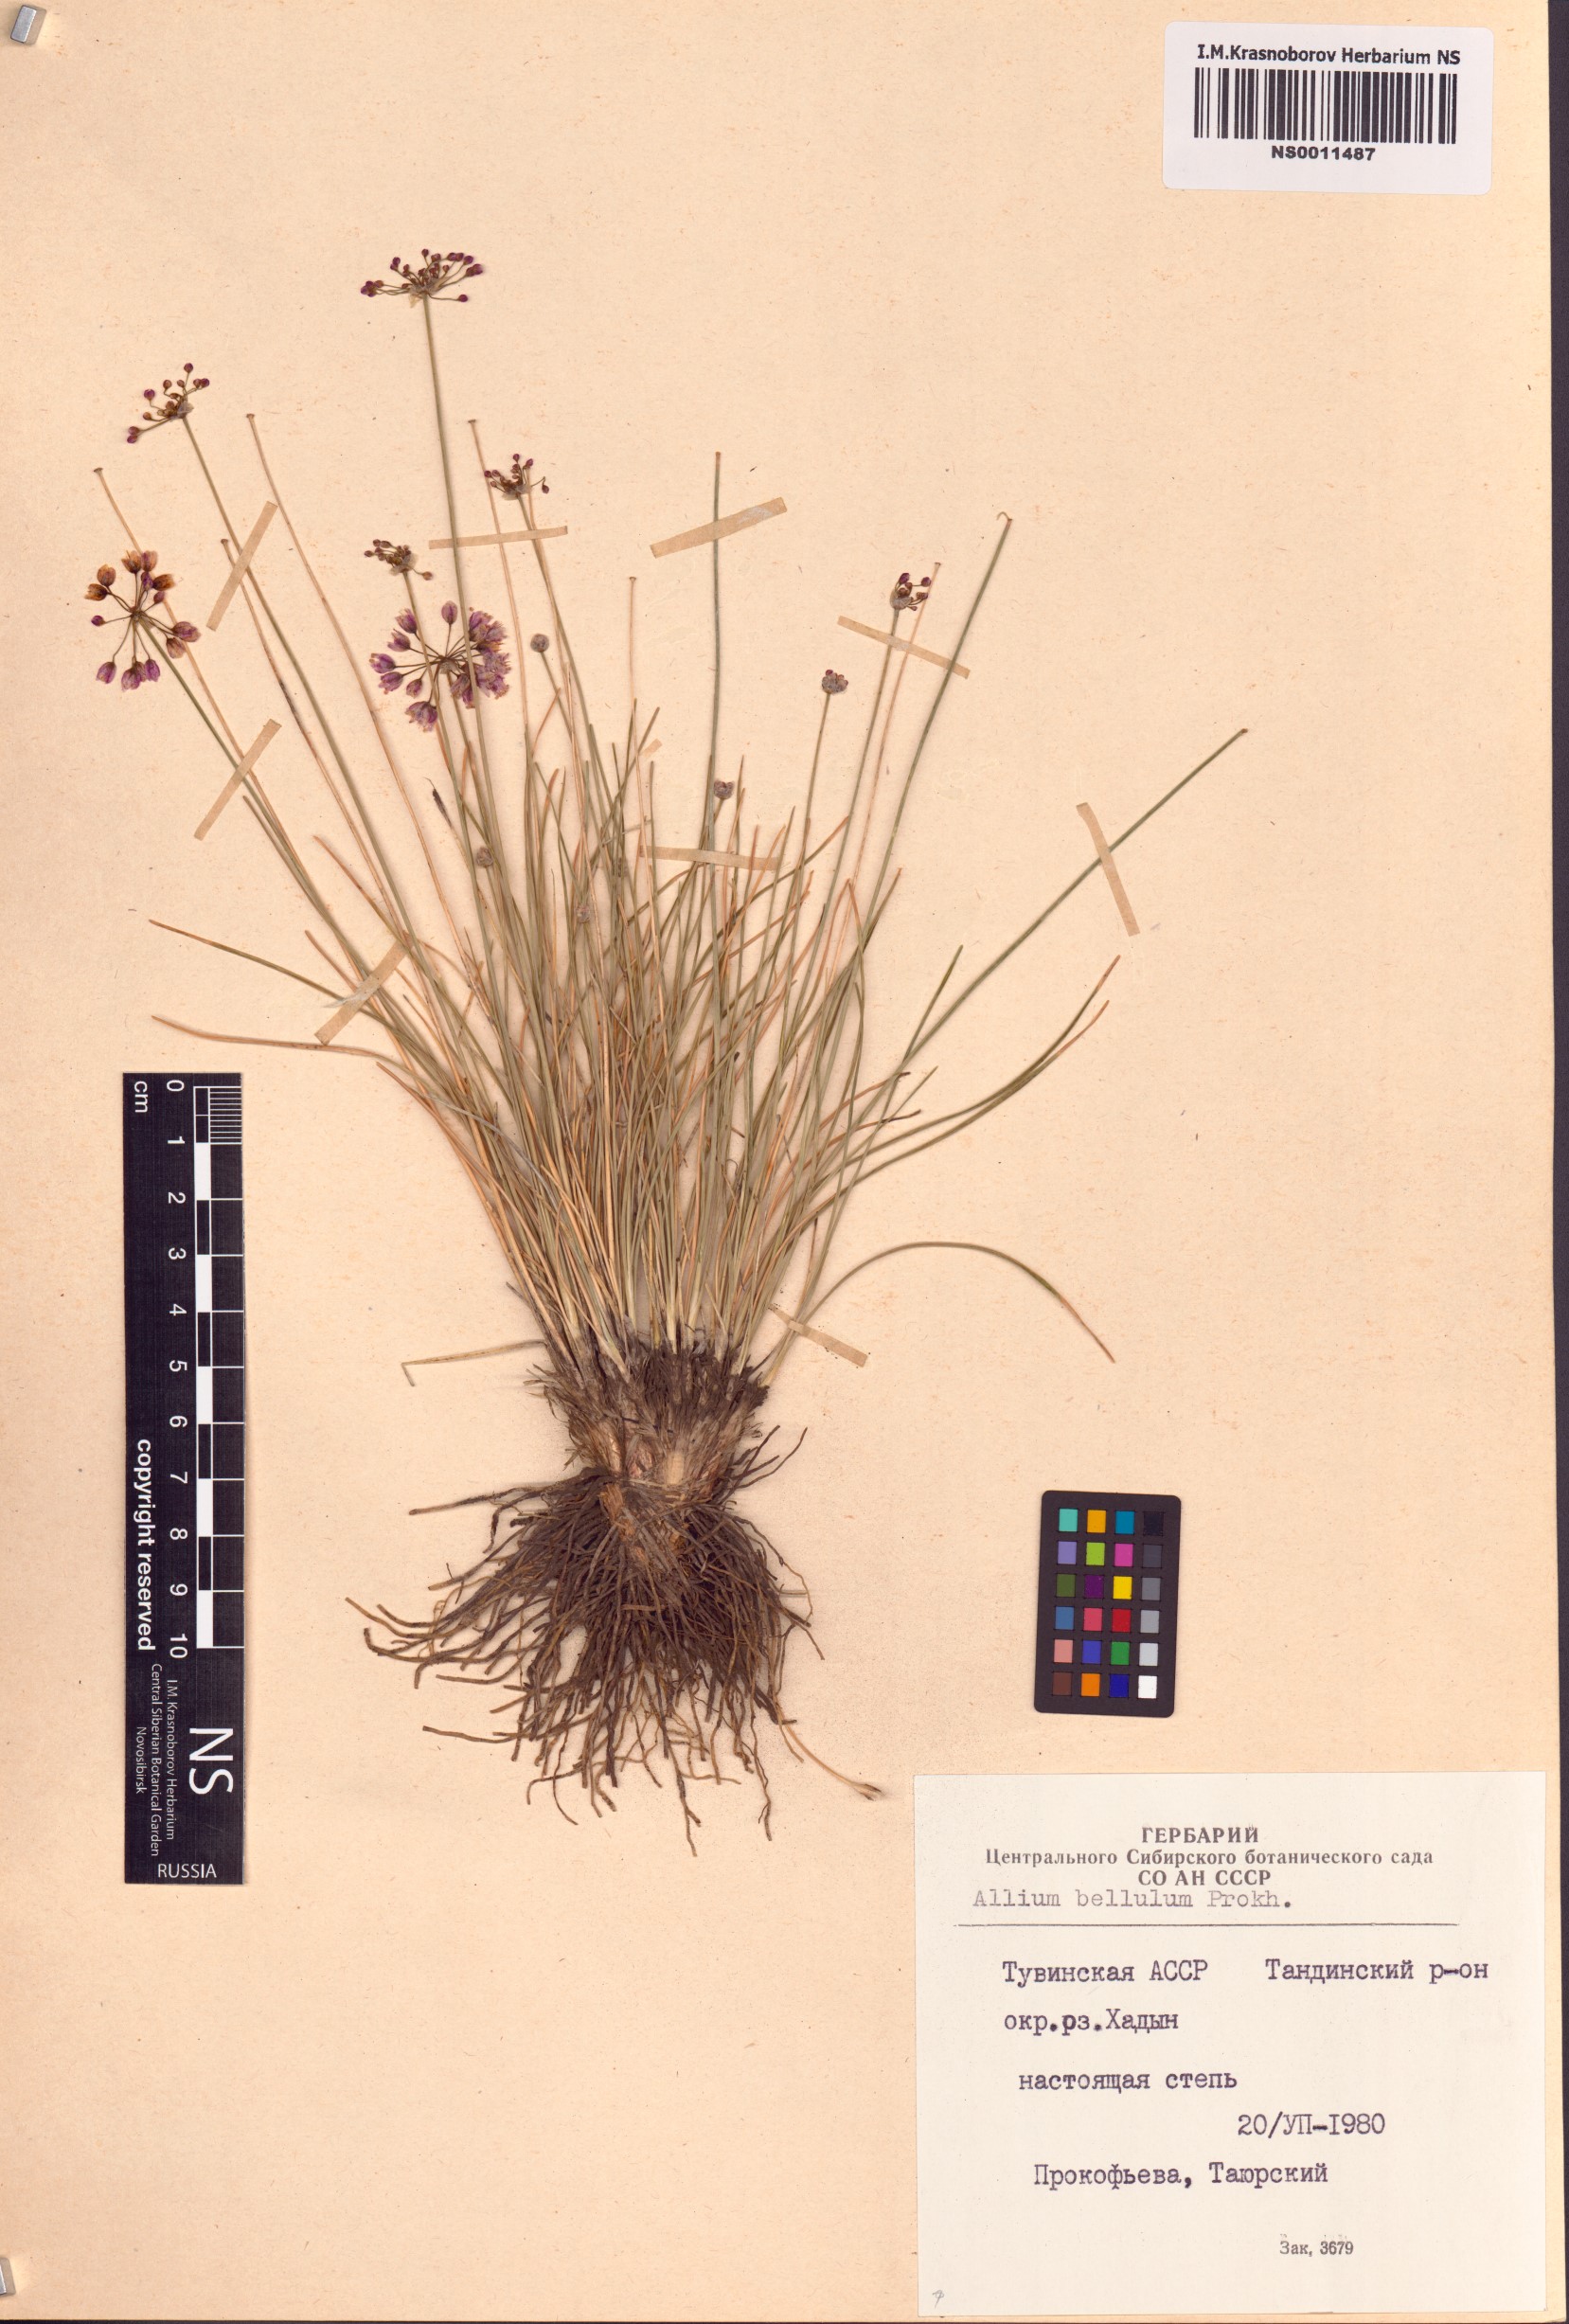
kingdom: Plantae
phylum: Tracheophyta
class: Liliopsida
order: Asparagales
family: Amaryllidaceae
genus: Allium
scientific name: Allium bellulum
